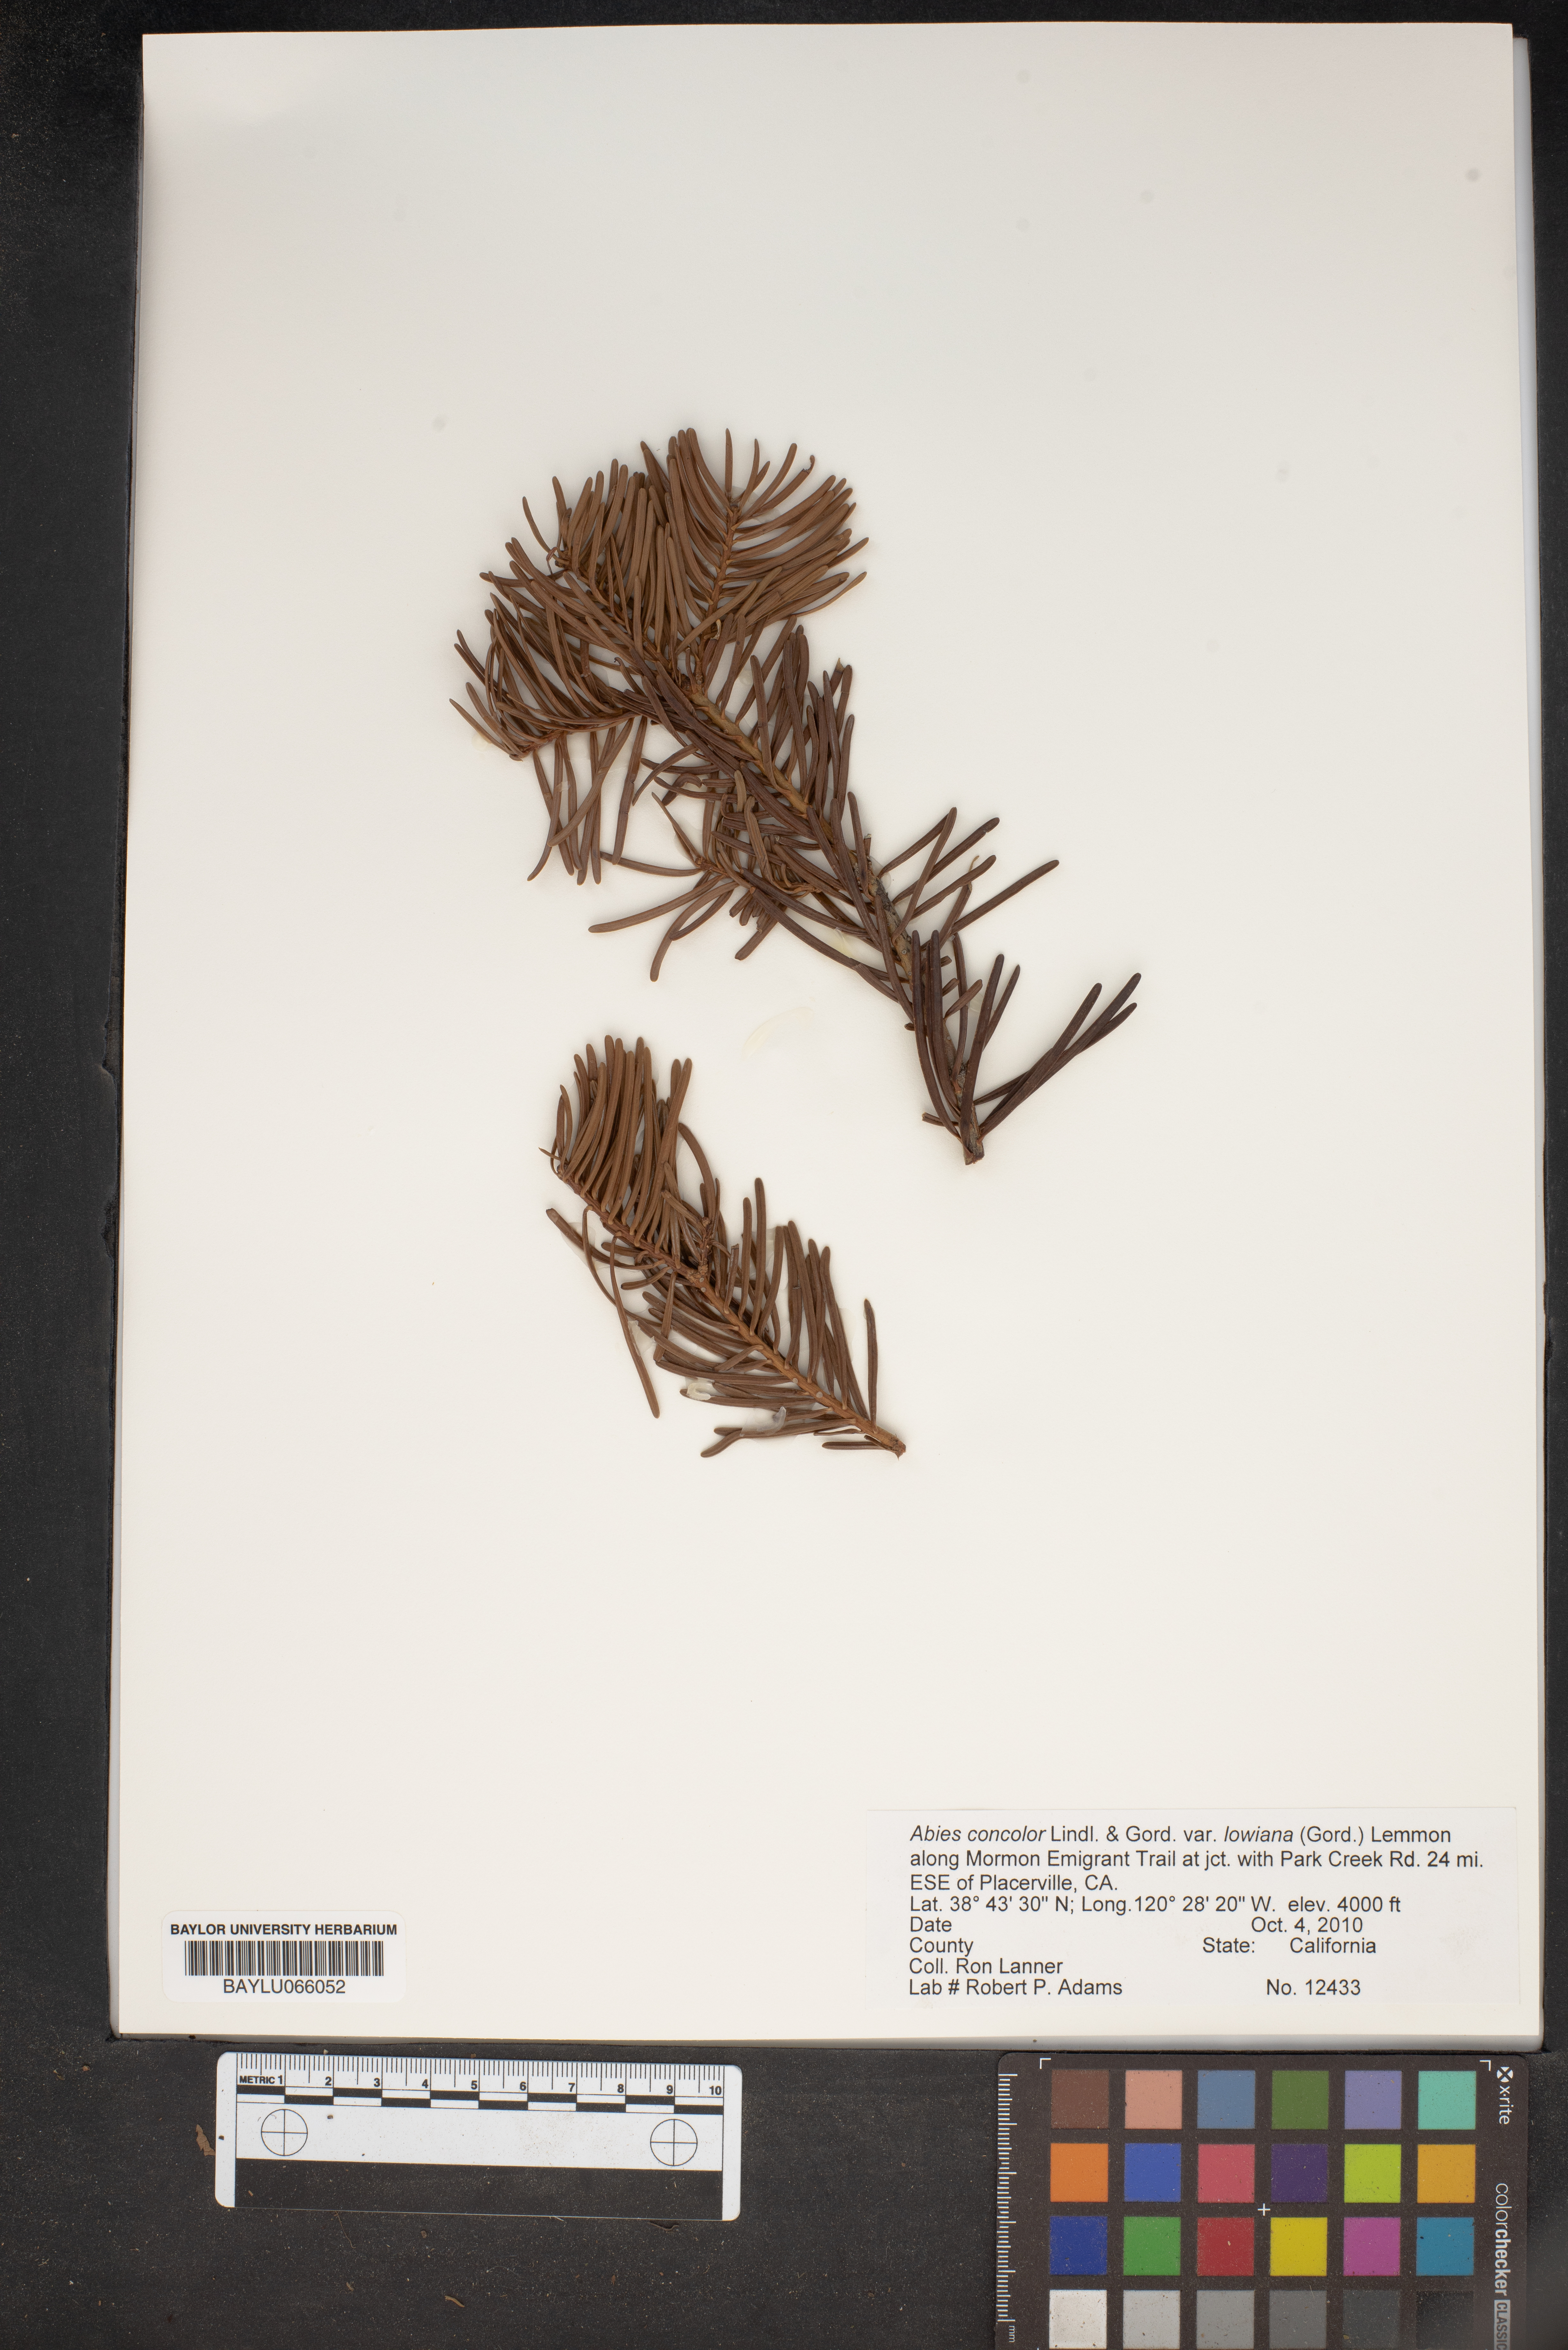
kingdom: Plantae
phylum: Tracheophyta
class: Pinopsida
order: Pinales
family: Pinaceae
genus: Abies
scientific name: Abies concolor
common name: Colorado fir
